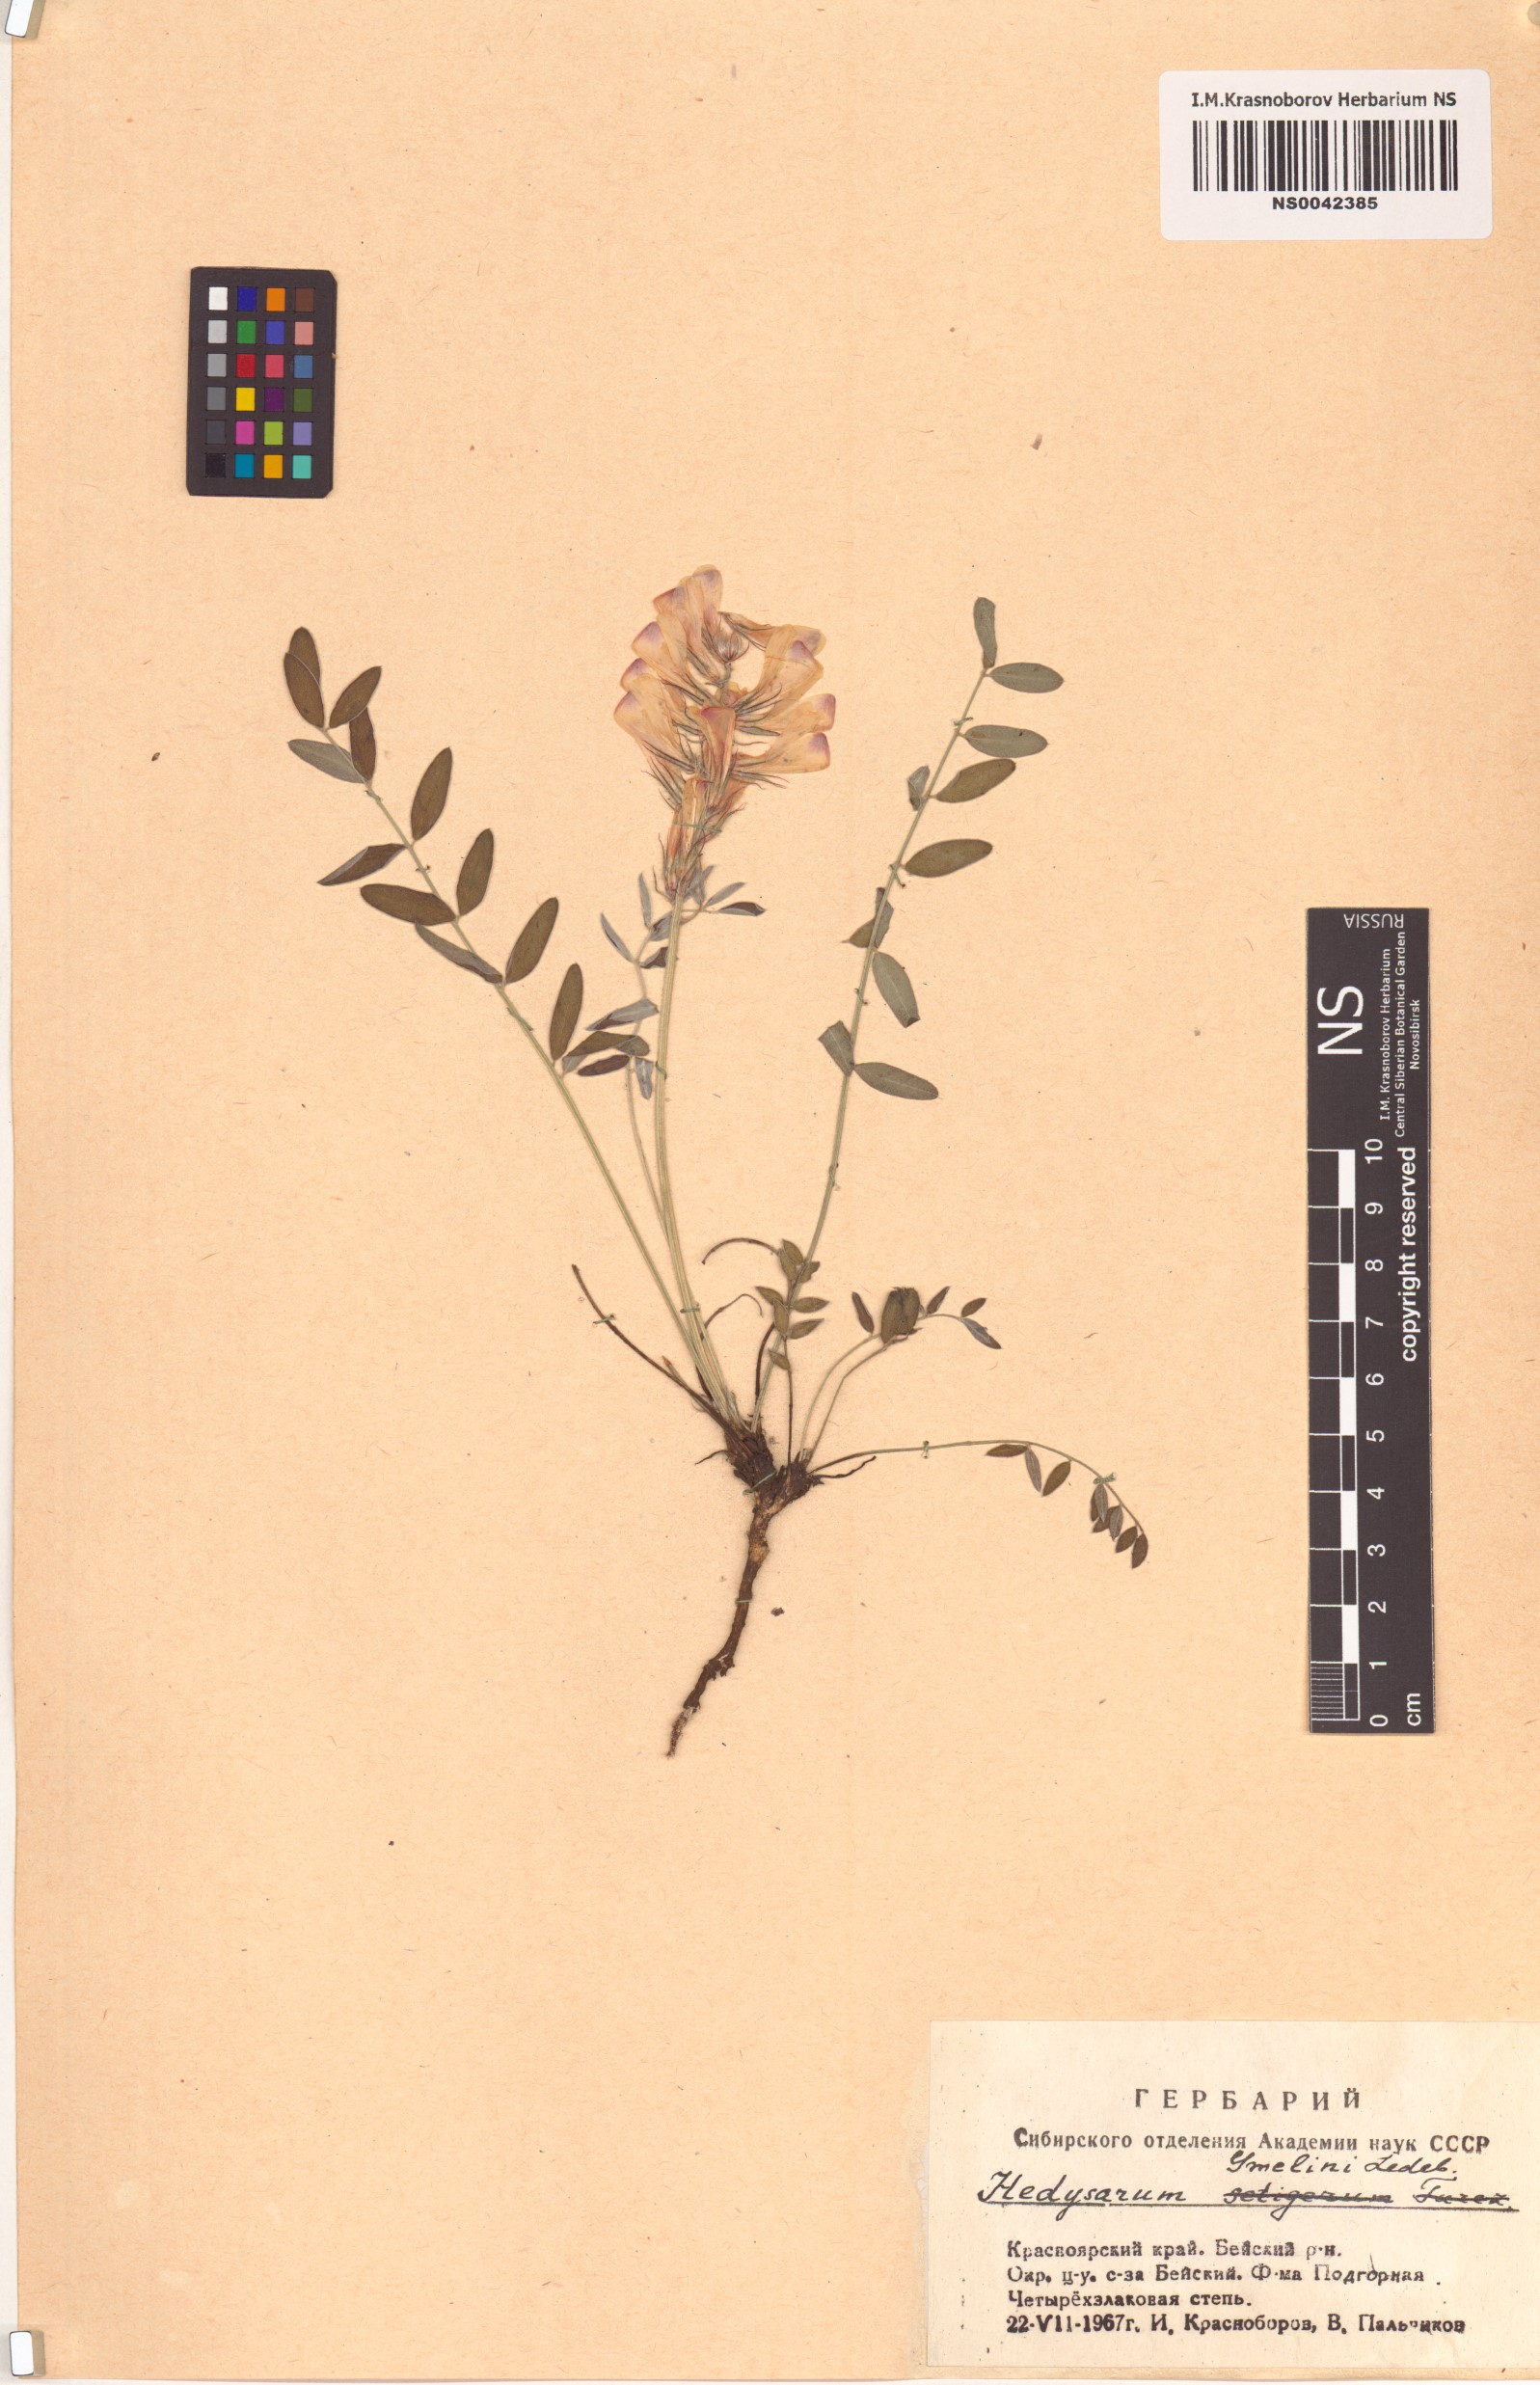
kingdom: Plantae
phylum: Tracheophyta
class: Magnoliopsida
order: Fabales
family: Fabaceae
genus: Hedysarum
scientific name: Hedysarum gmelinii
